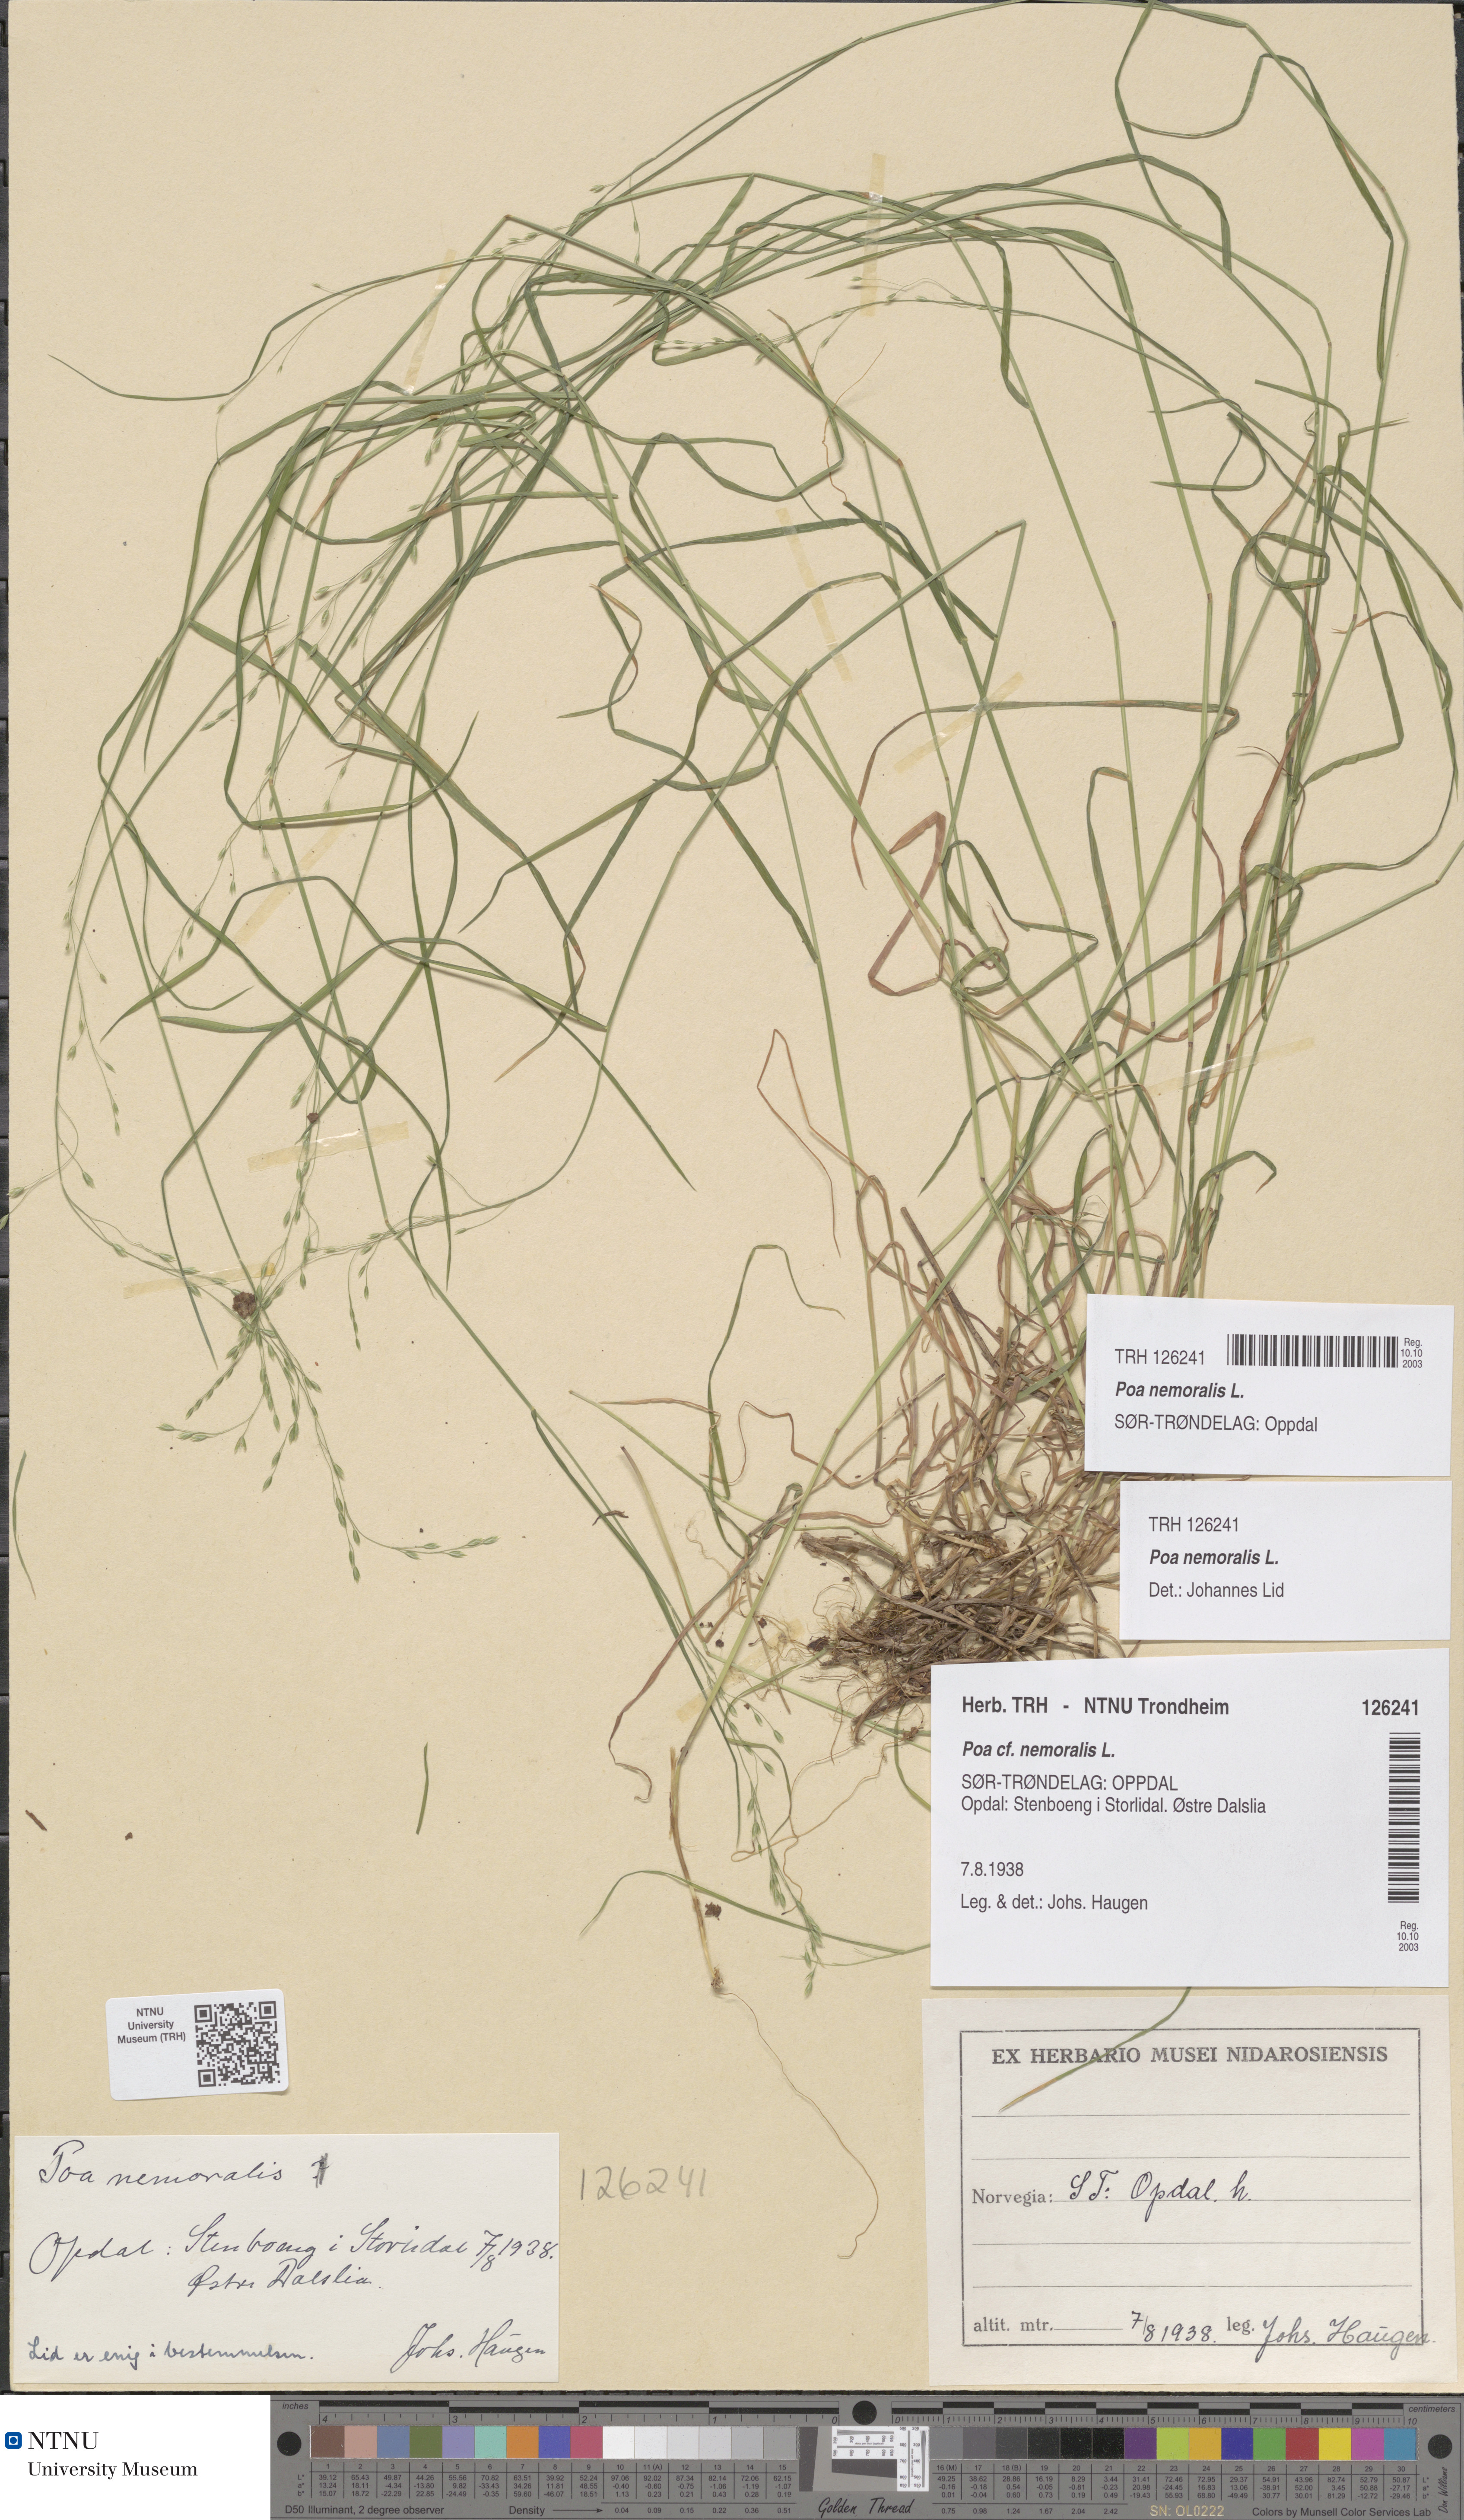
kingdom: Plantae
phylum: Tracheophyta
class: Liliopsida
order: Poales
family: Poaceae
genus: Poa
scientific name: Poa nemoralis
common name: Wood bluegrass
